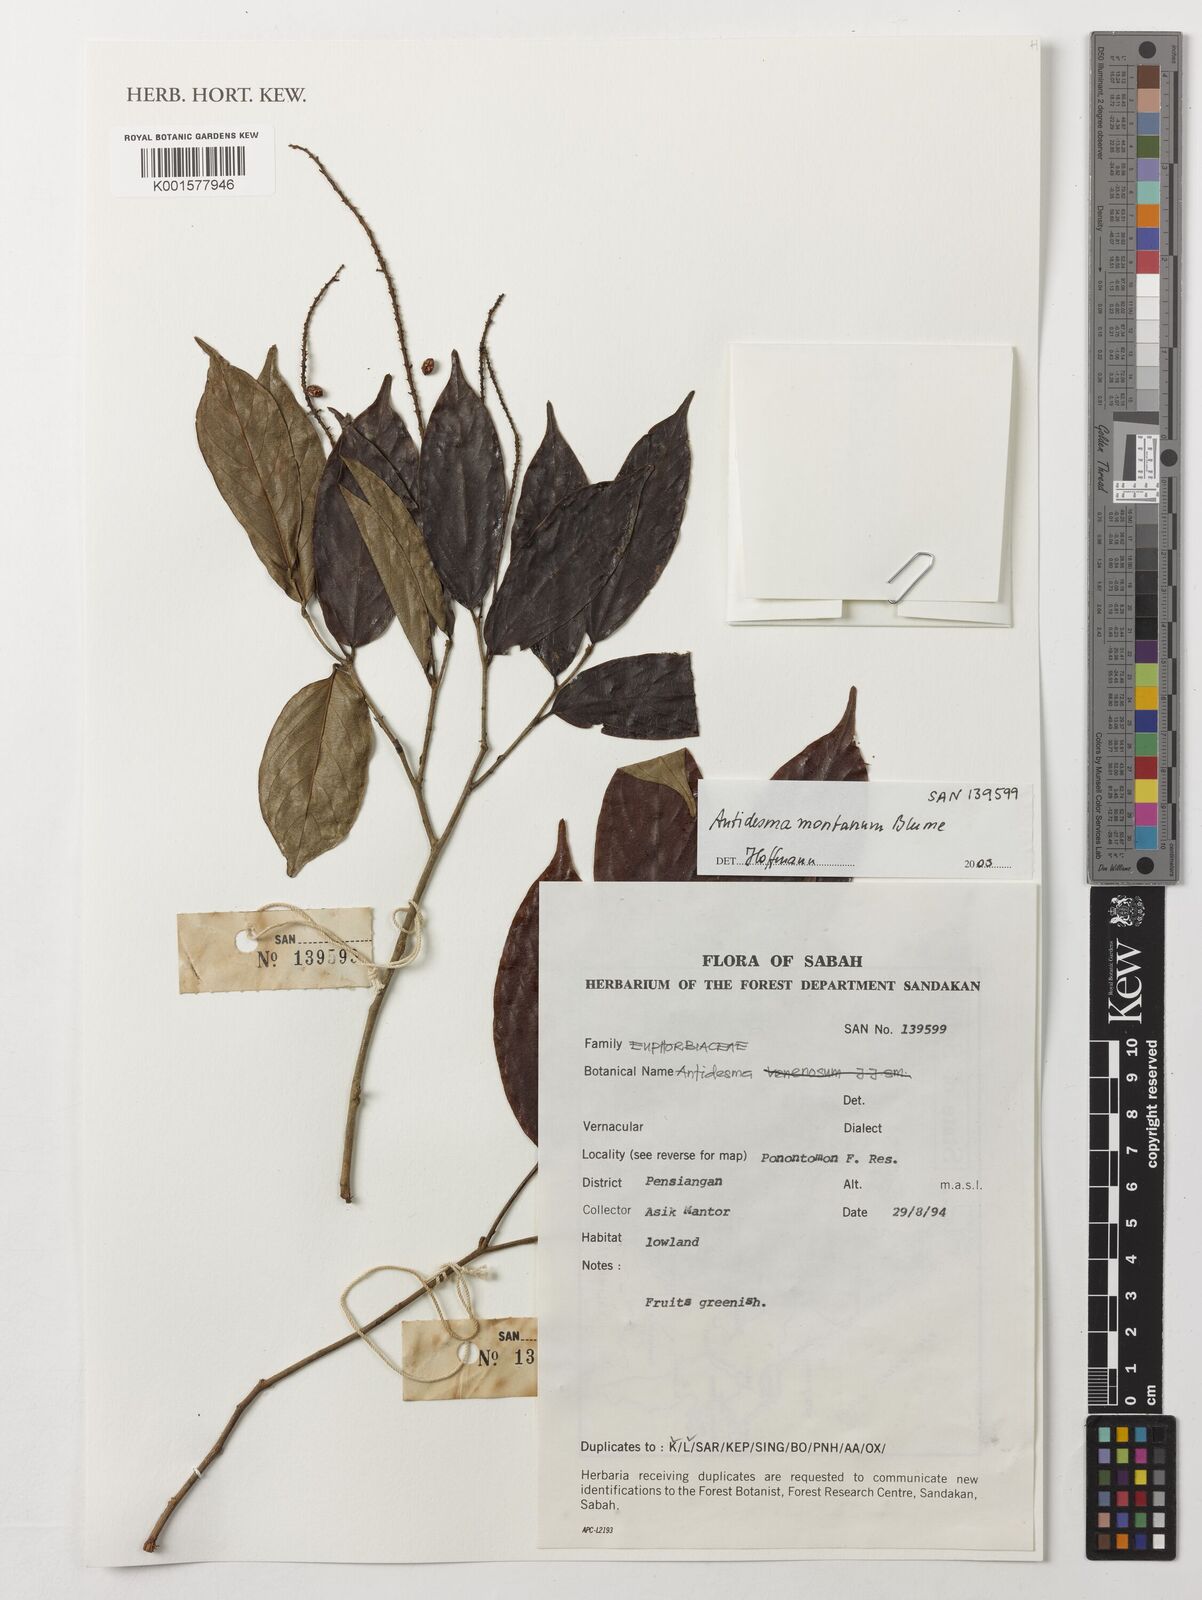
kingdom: Plantae
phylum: Tracheophyta
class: Magnoliopsida
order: Malpighiales
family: Phyllanthaceae
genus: Antidesma
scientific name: Antidesma montanum
